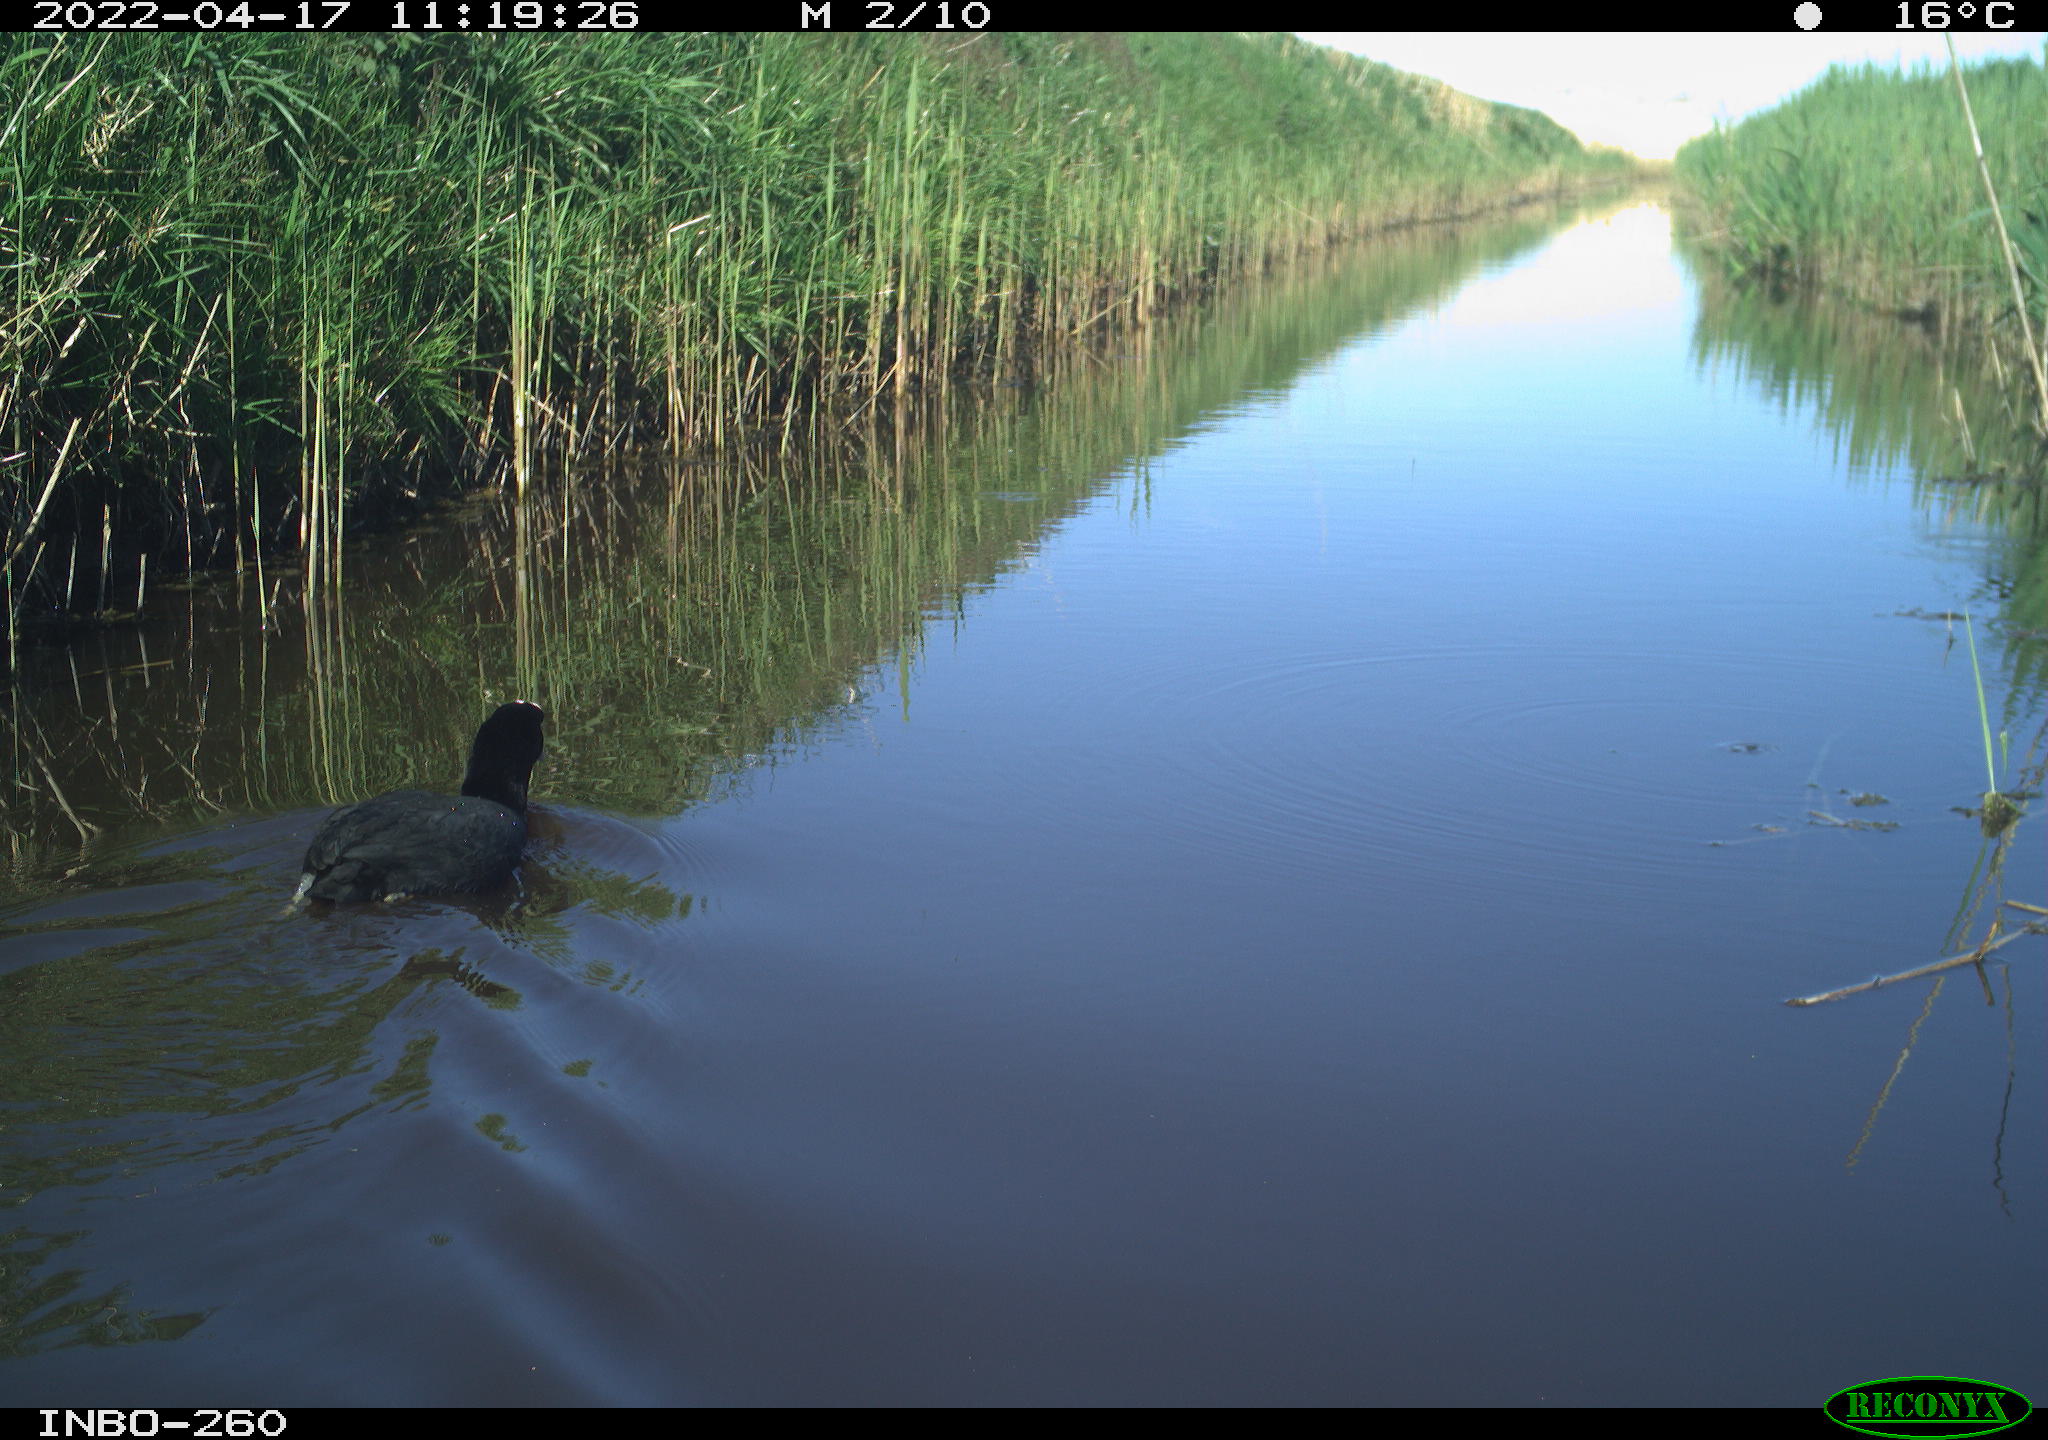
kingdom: Animalia
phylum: Chordata
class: Aves
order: Gruiformes
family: Rallidae
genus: Fulica
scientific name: Fulica atra
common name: Eurasian coot
